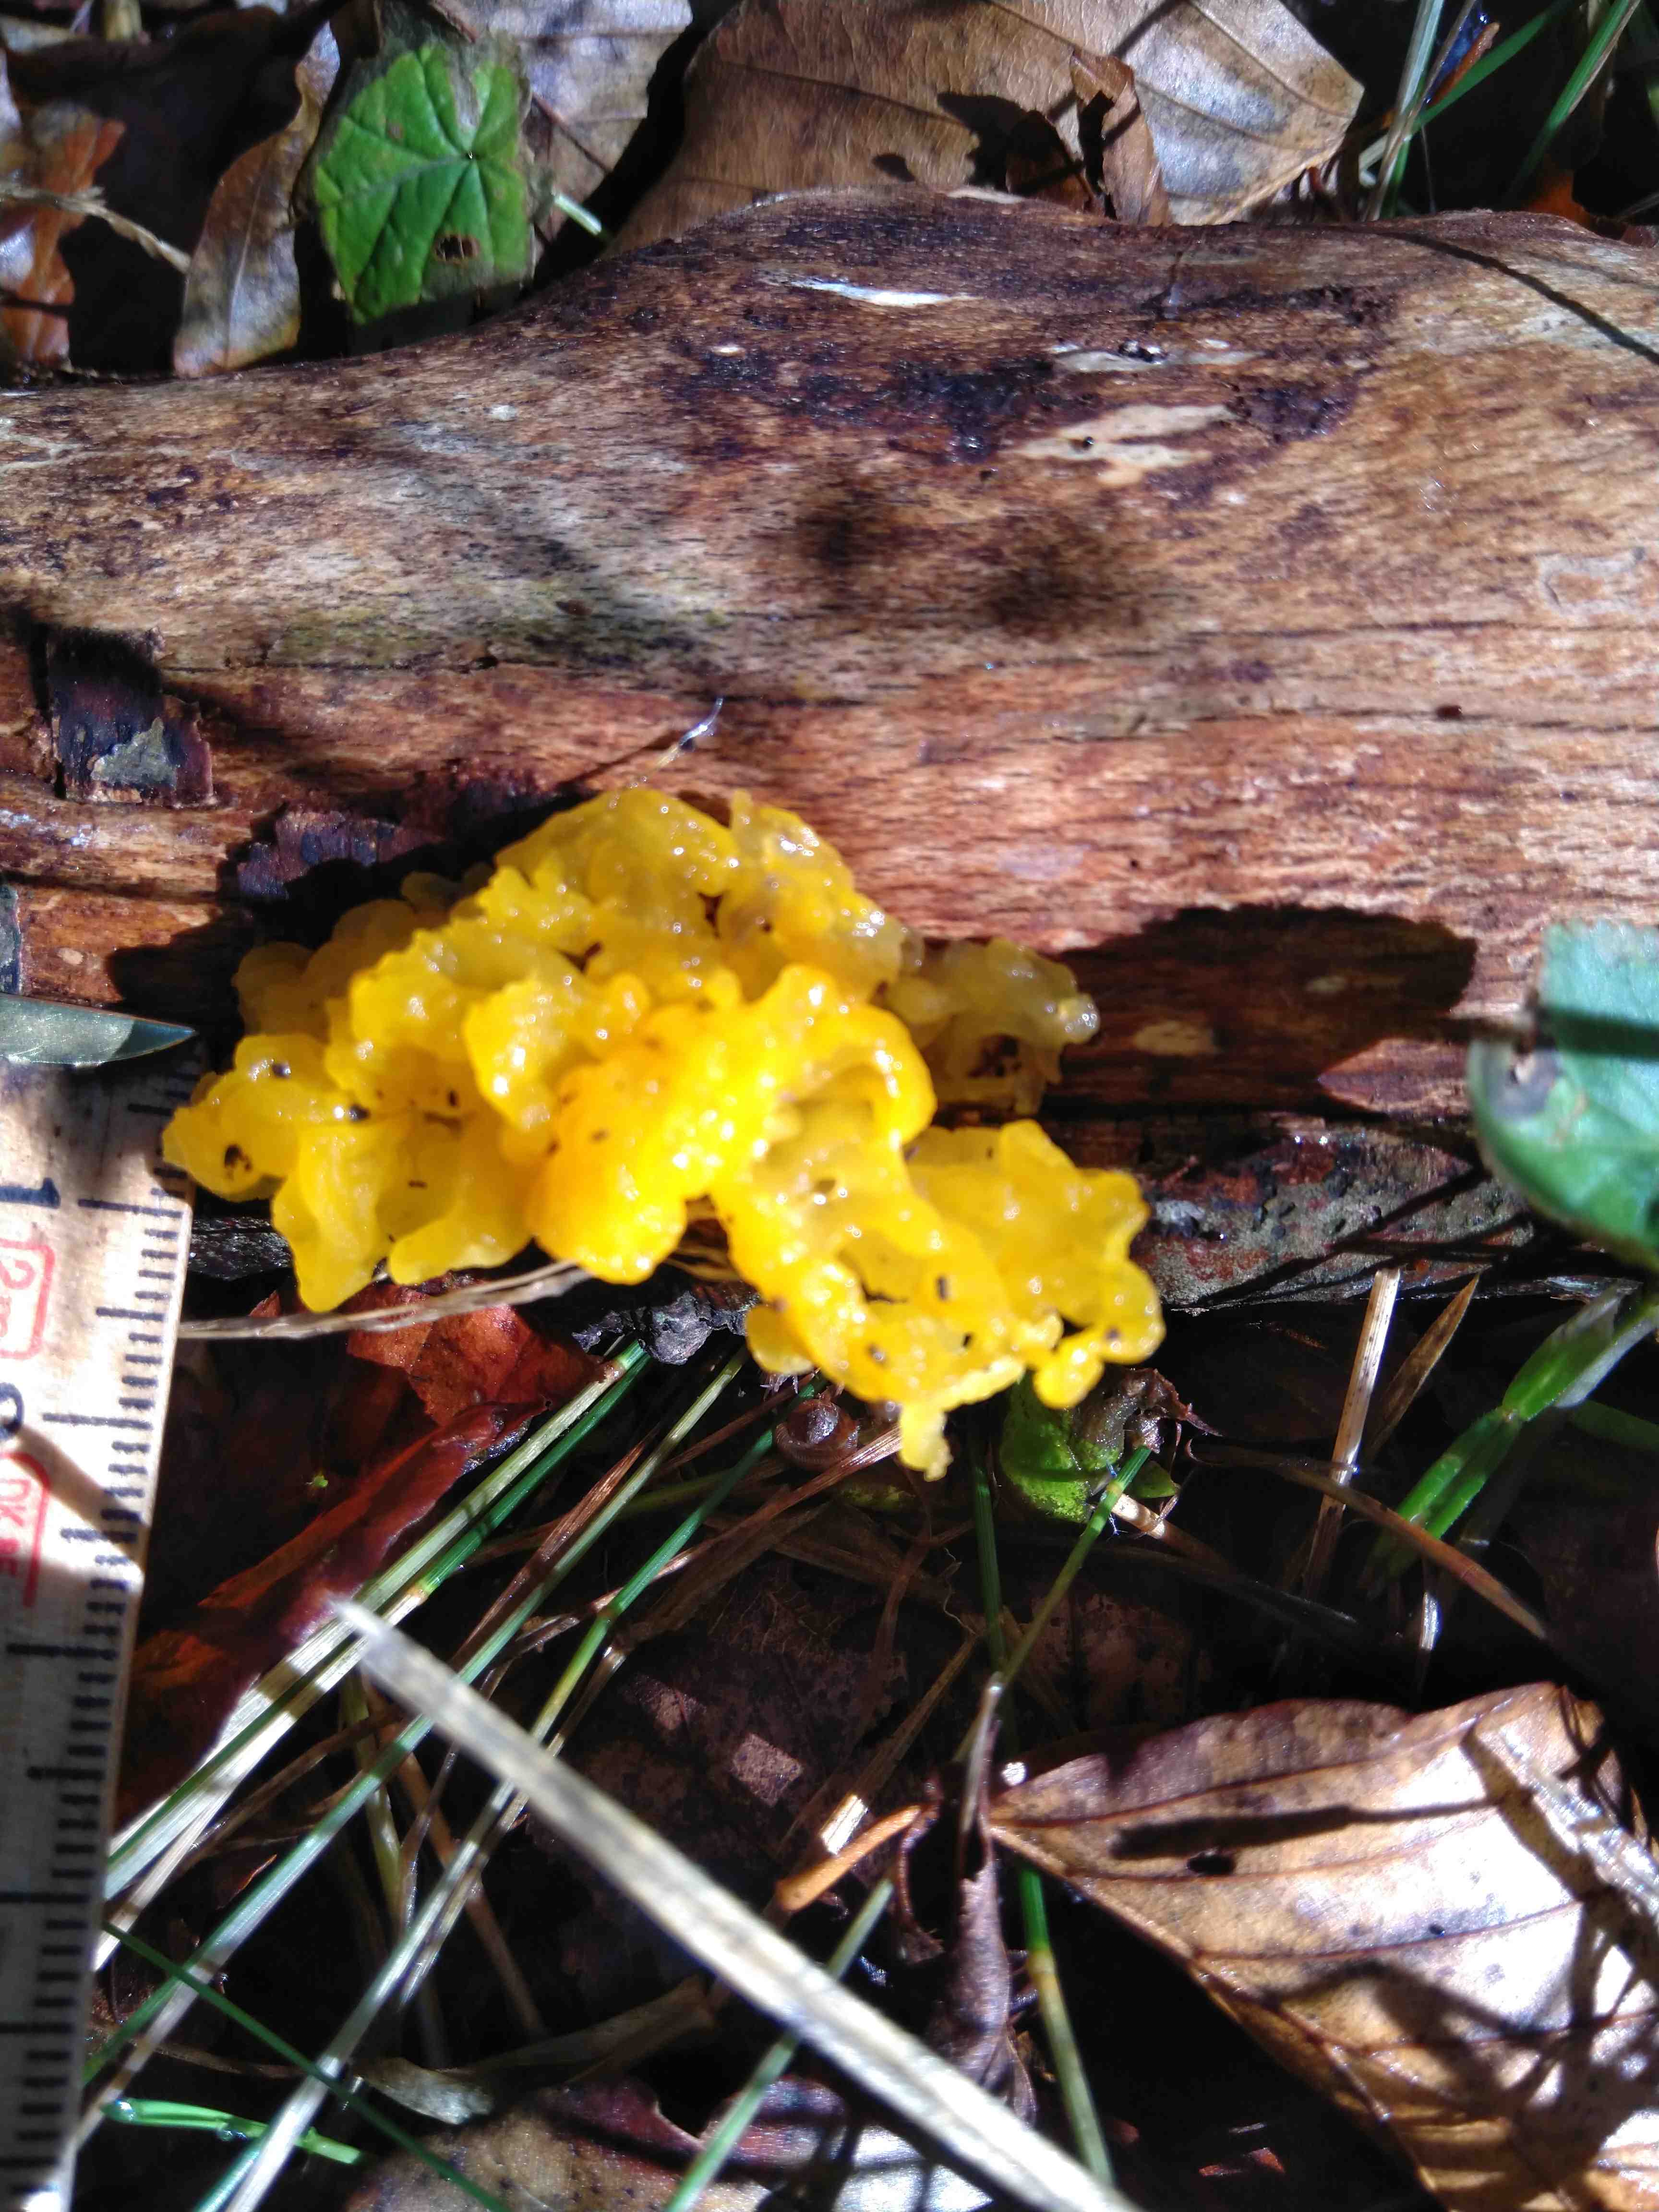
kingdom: Fungi
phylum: Basidiomycota
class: Tremellomycetes
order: Tremellales
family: Tremellaceae
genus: Tremella
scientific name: Tremella mesenterica
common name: gul bævresvamp
